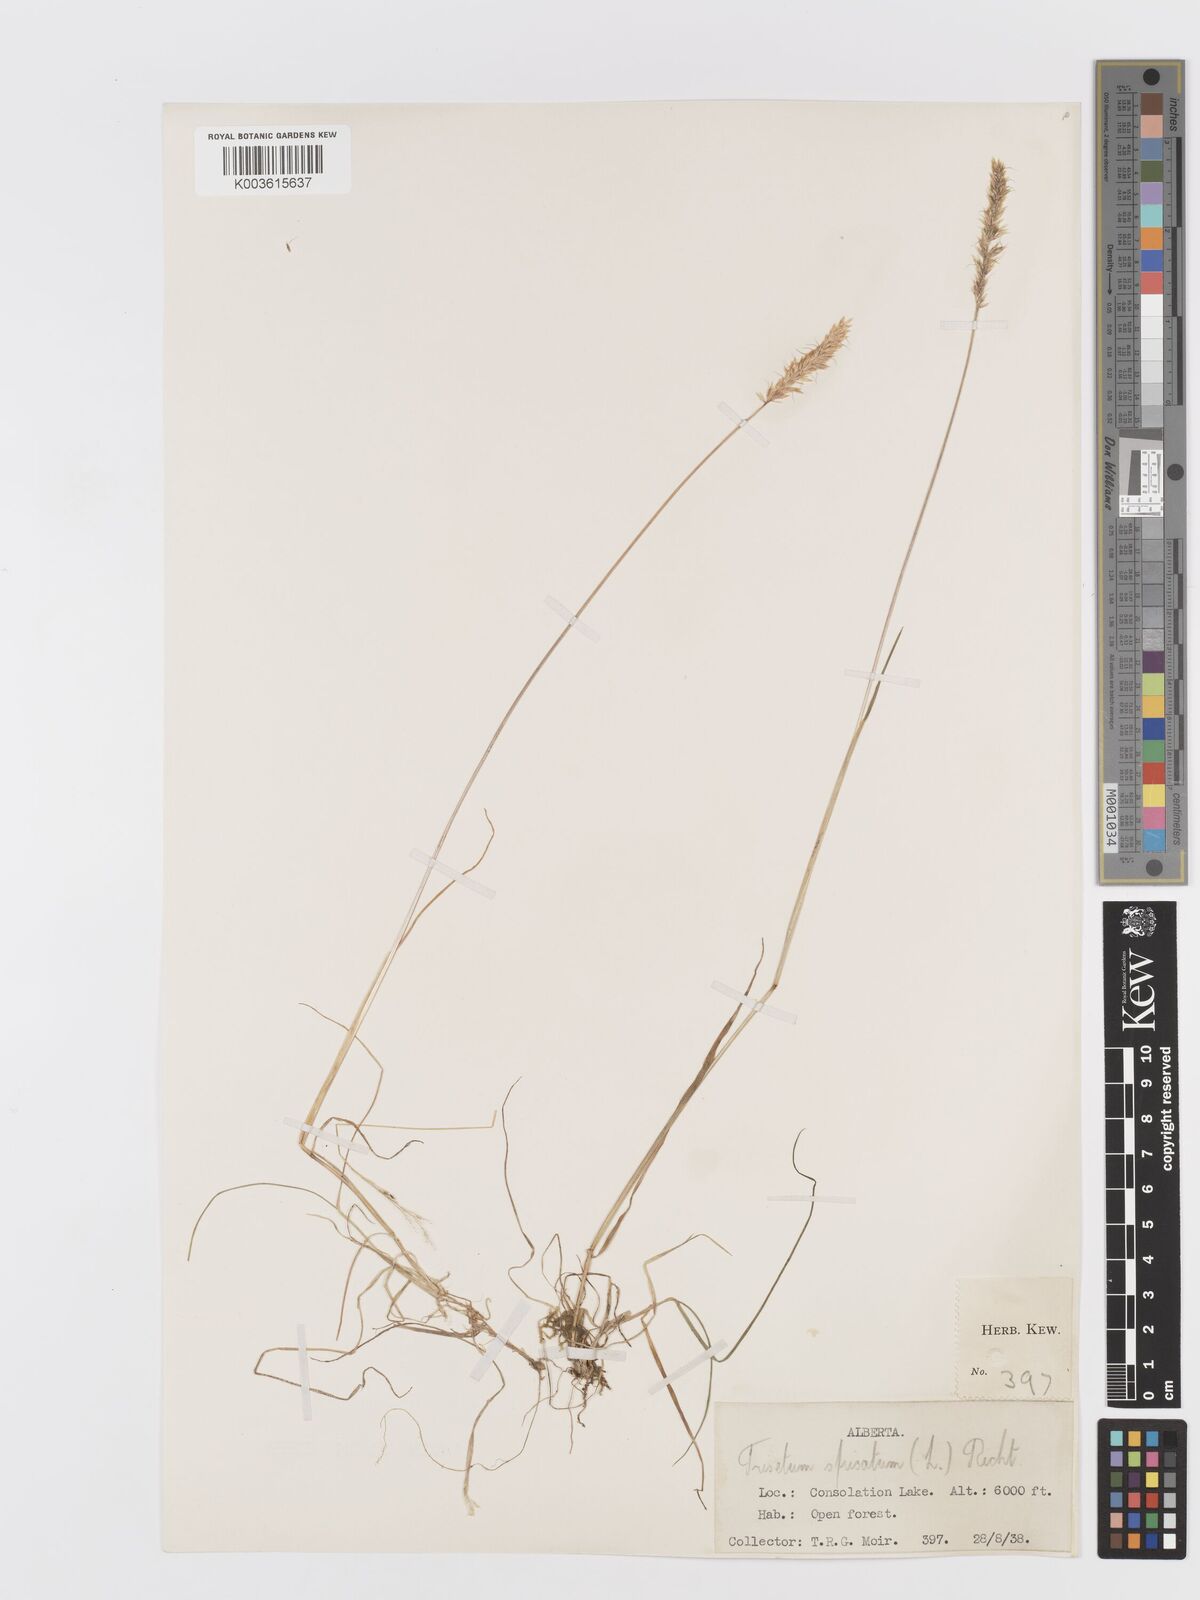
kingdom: Plantae
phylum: Tracheophyta
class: Liliopsida
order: Poales
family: Poaceae
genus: Koeleria
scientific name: Koeleria spicata
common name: Mountain trisetum
